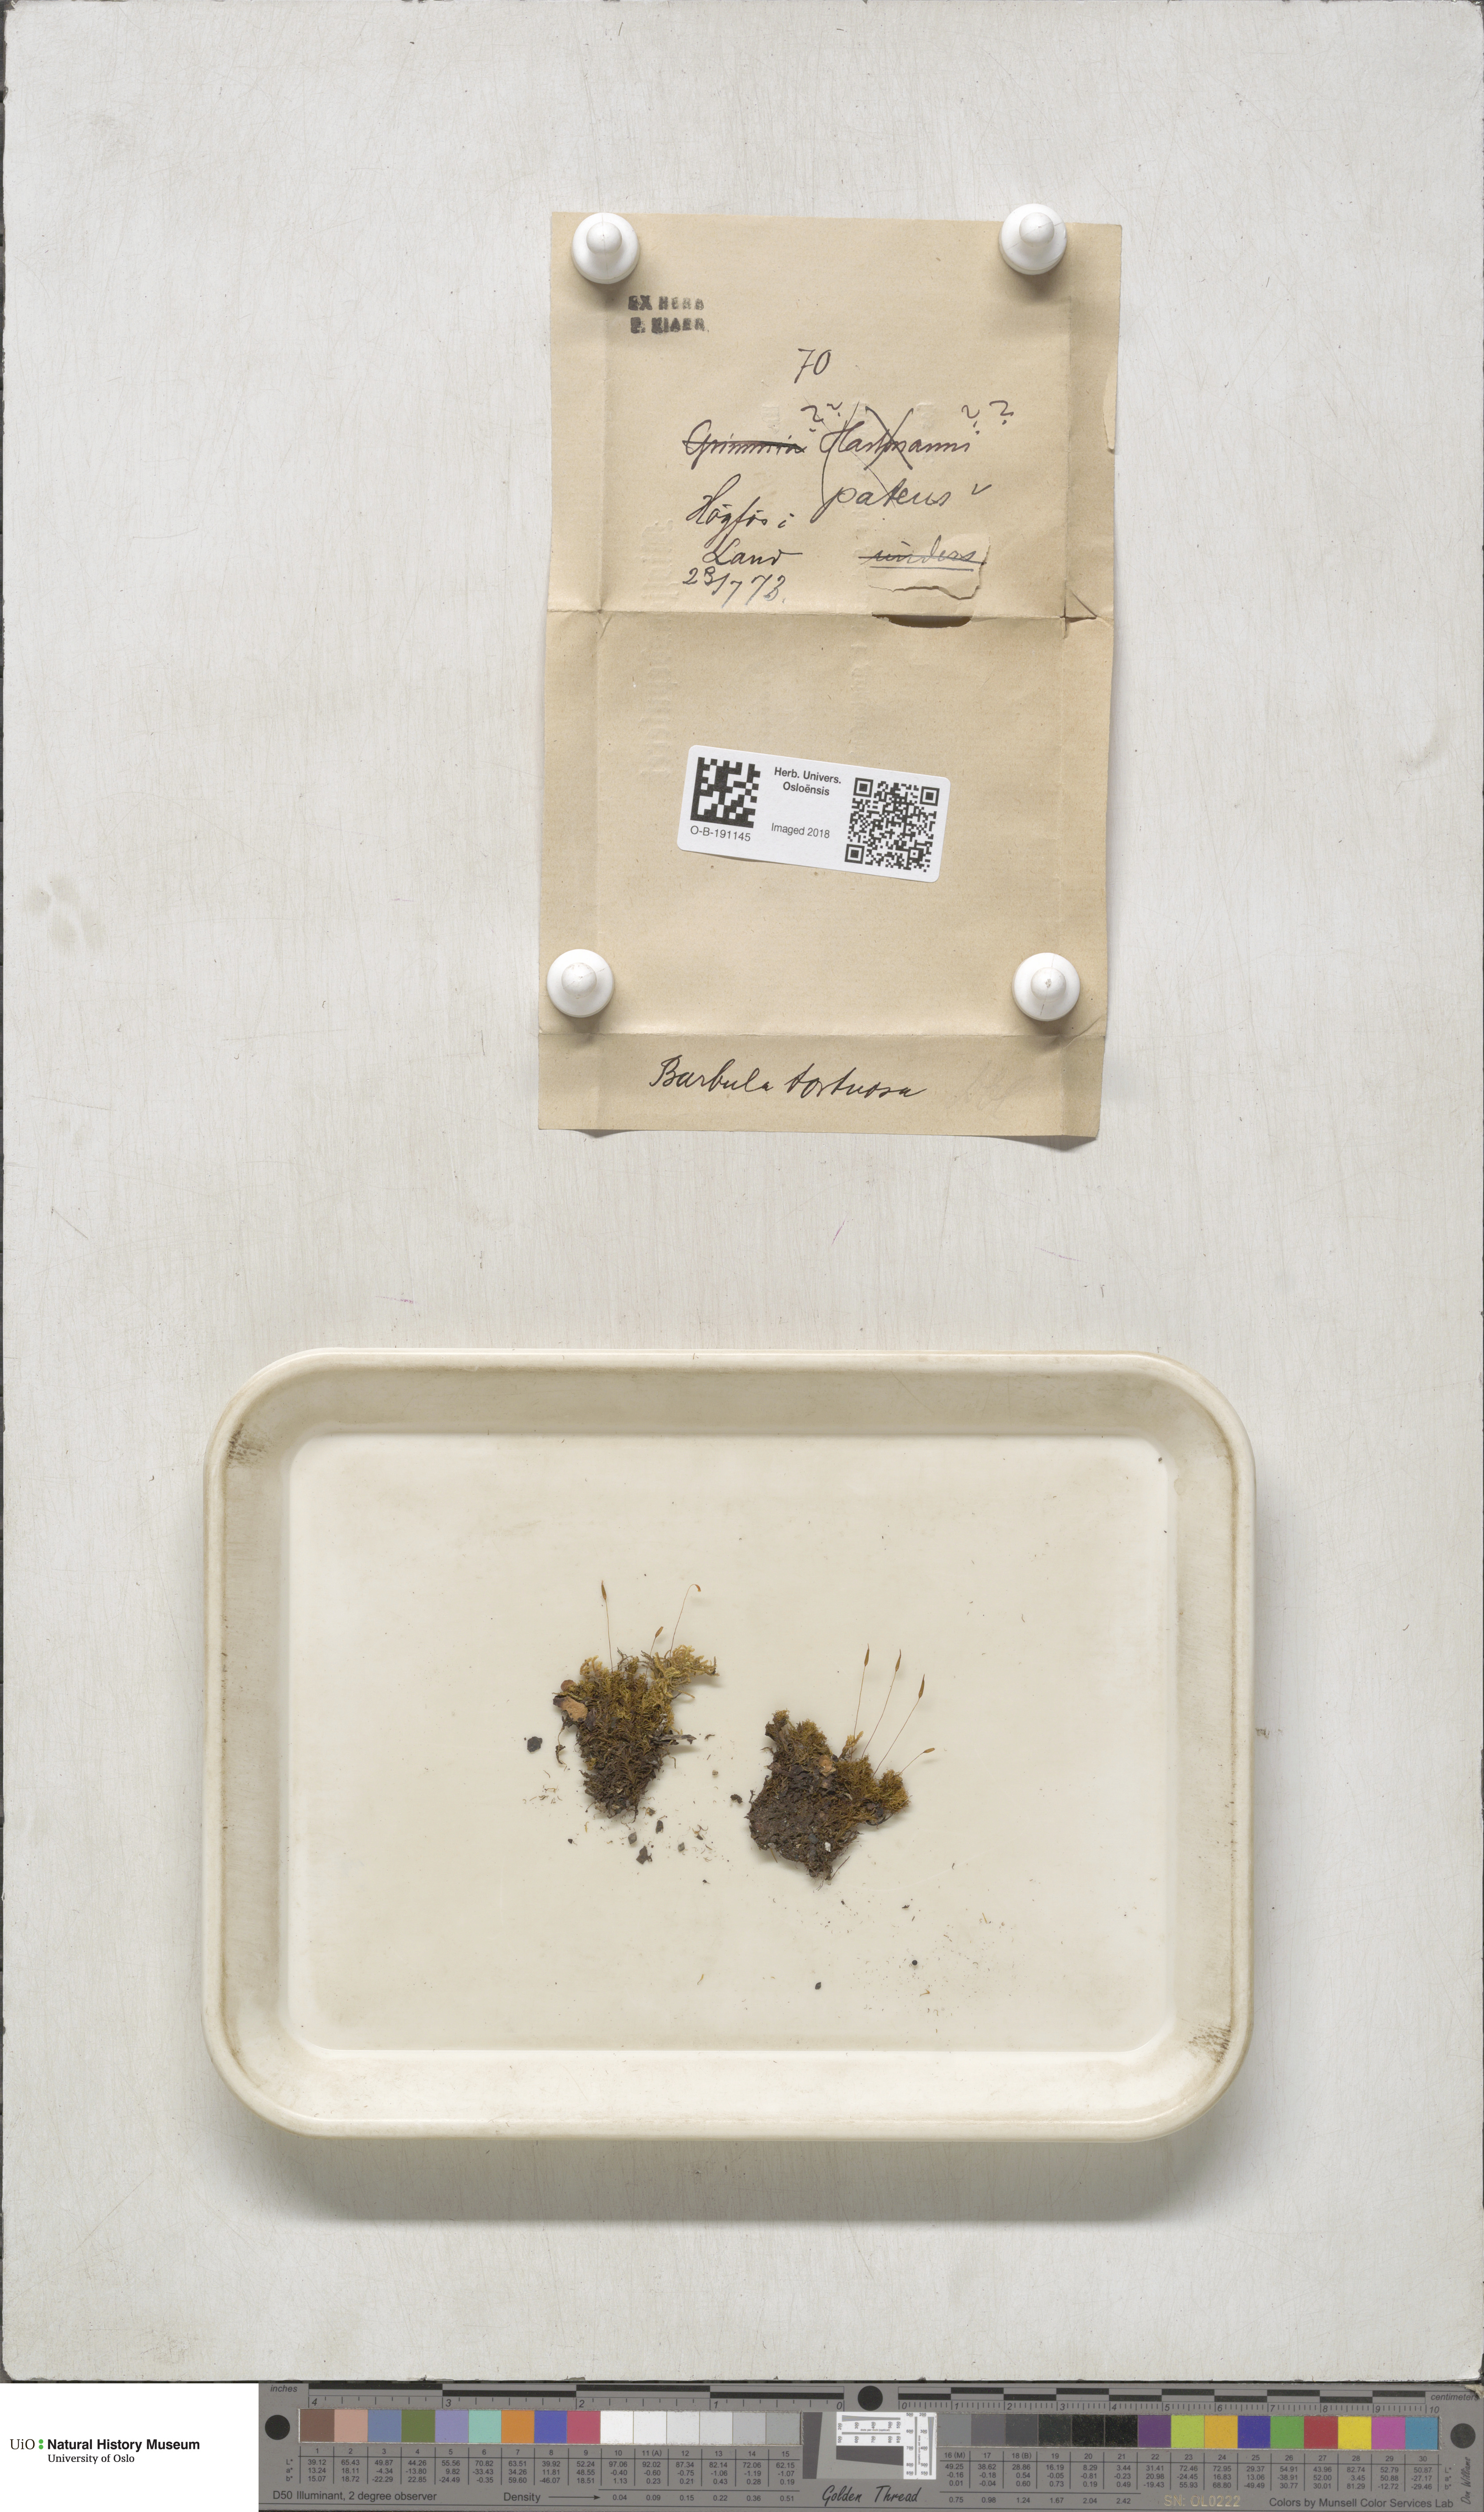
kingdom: Plantae
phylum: Bryophyta
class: Bryopsida
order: Pottiales
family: Pottiaceae
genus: Tortella
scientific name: Tortella tortuosa
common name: Frizzled crisp moss
